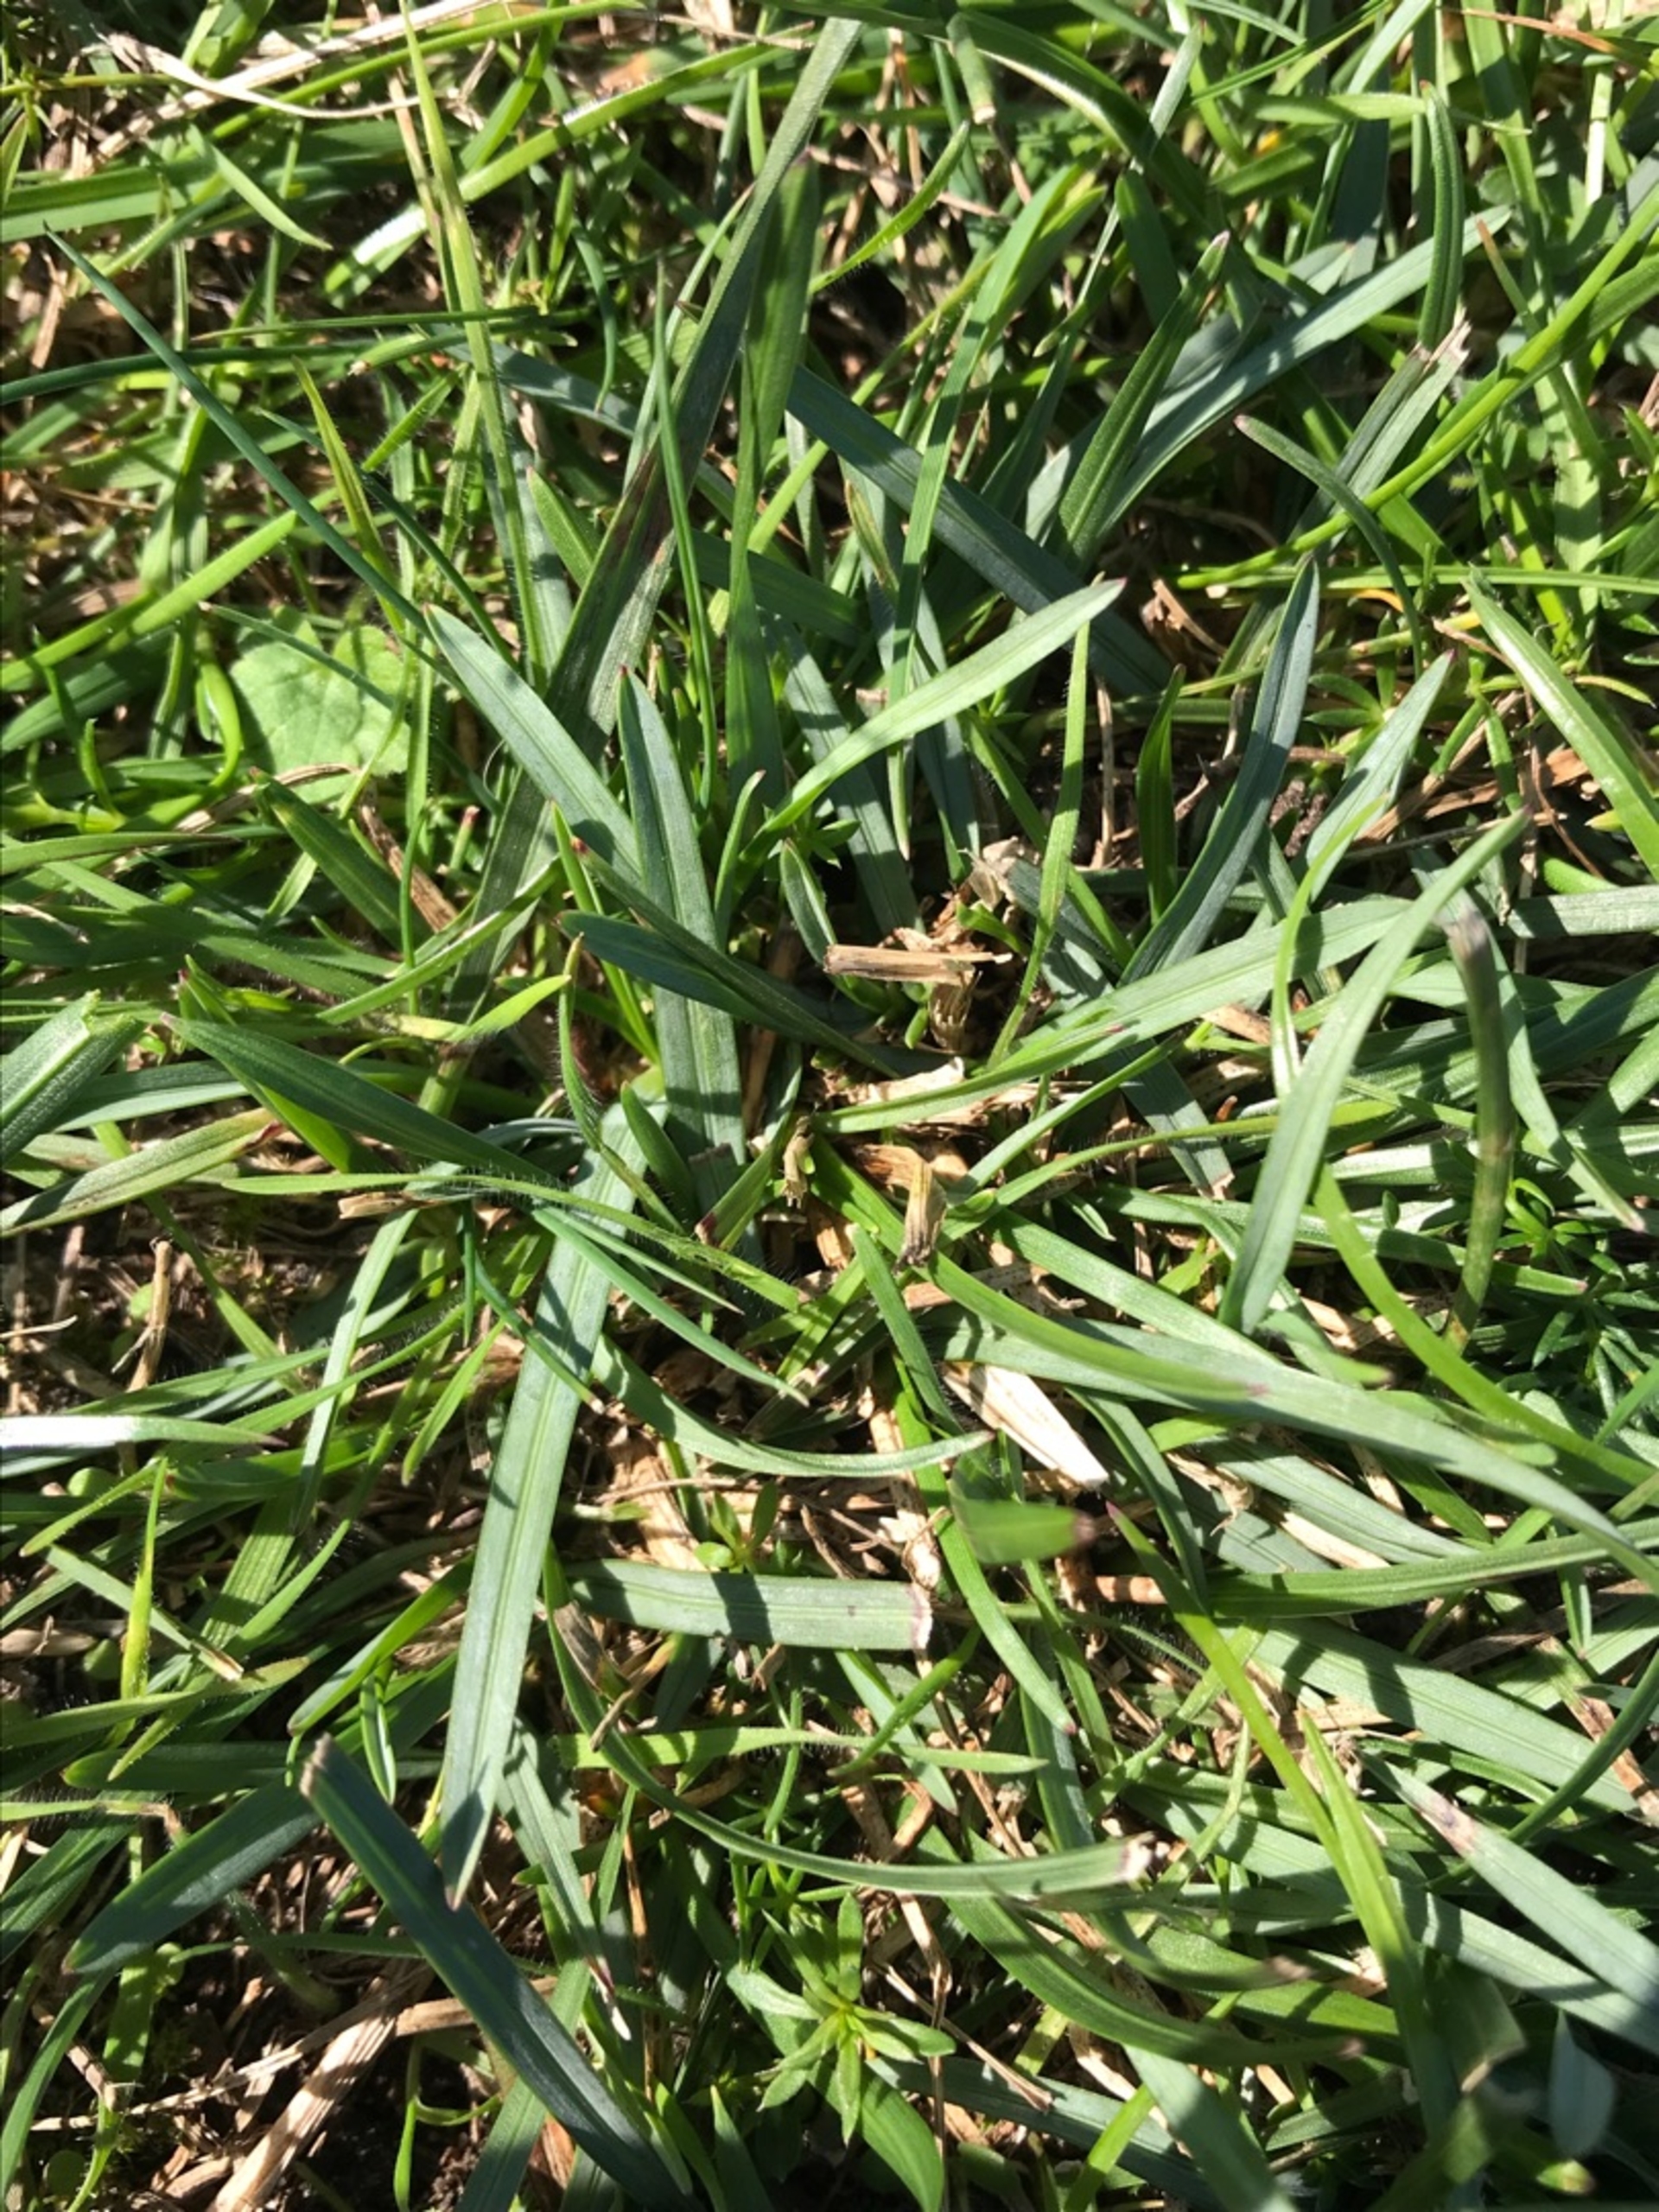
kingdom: Plantae
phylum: Tracheophyta
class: Liliopsida
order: Poales
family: Poaceae
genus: Helictochloa
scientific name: Helictochloa pratensis
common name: Eng-havre
